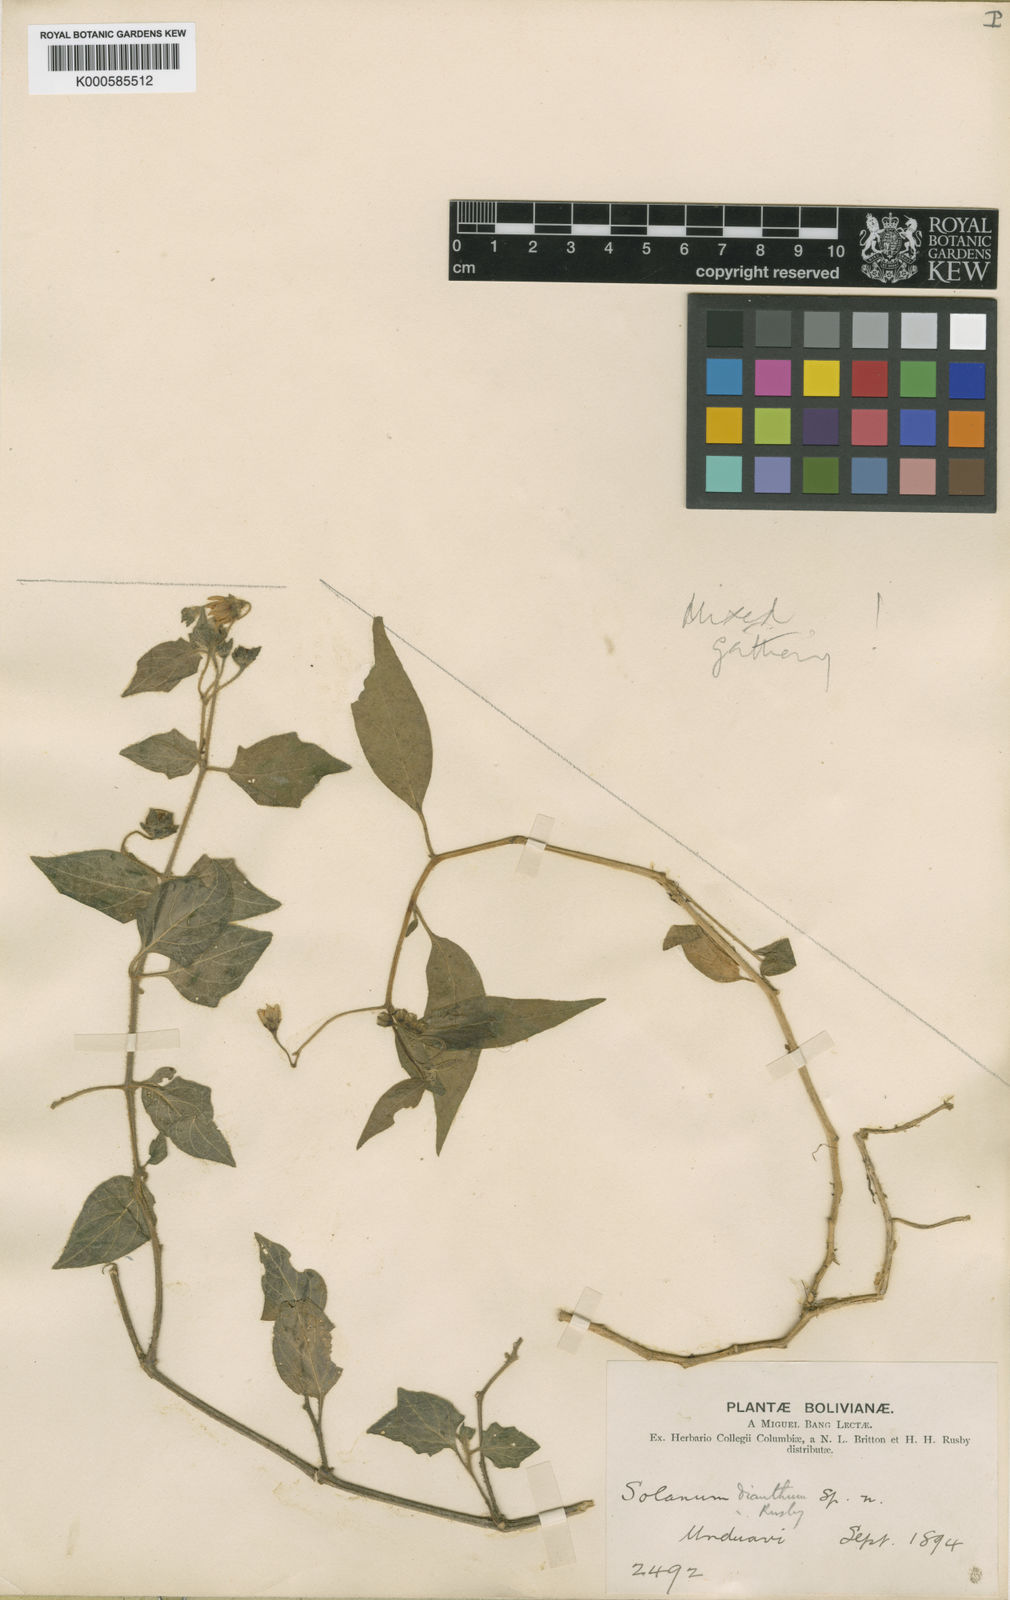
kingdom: Plantae
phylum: Tracheophyta
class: Magnoliopsida
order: Solanales
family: Solanaceae
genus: Solanum
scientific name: Solanum dianthum
